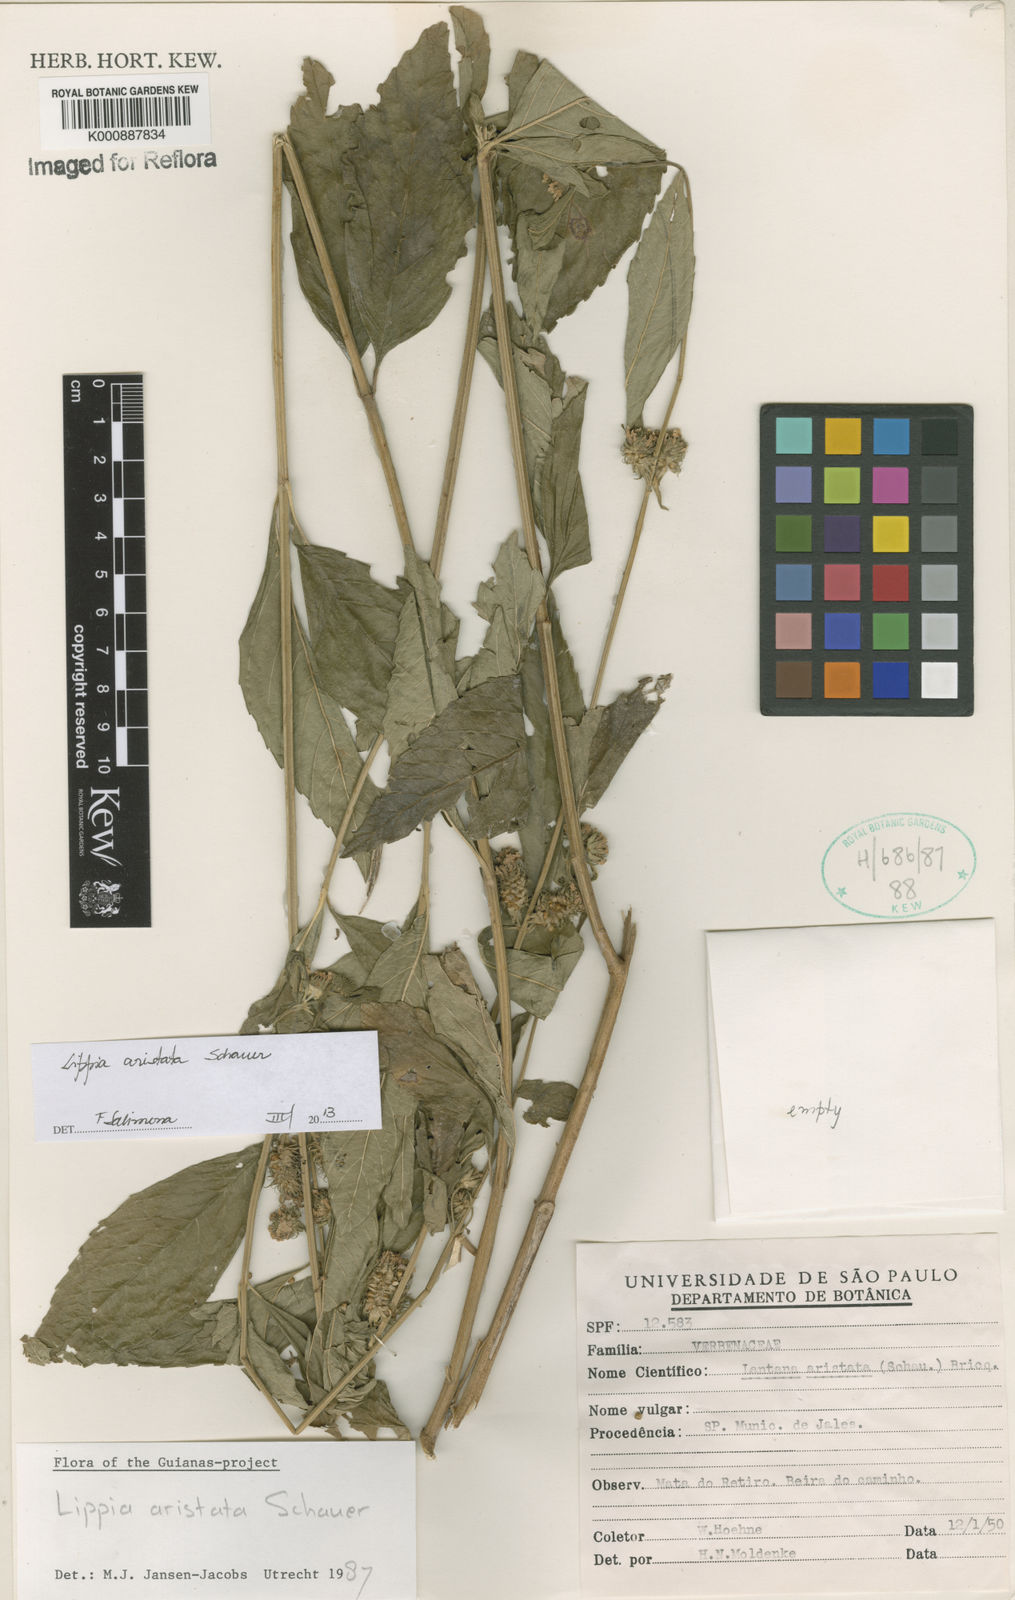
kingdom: Plantae
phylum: Tracheophyta
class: Magnoliopsida
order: Lamiales
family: Verbenaceae
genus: Lippia
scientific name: Lippia aristata
